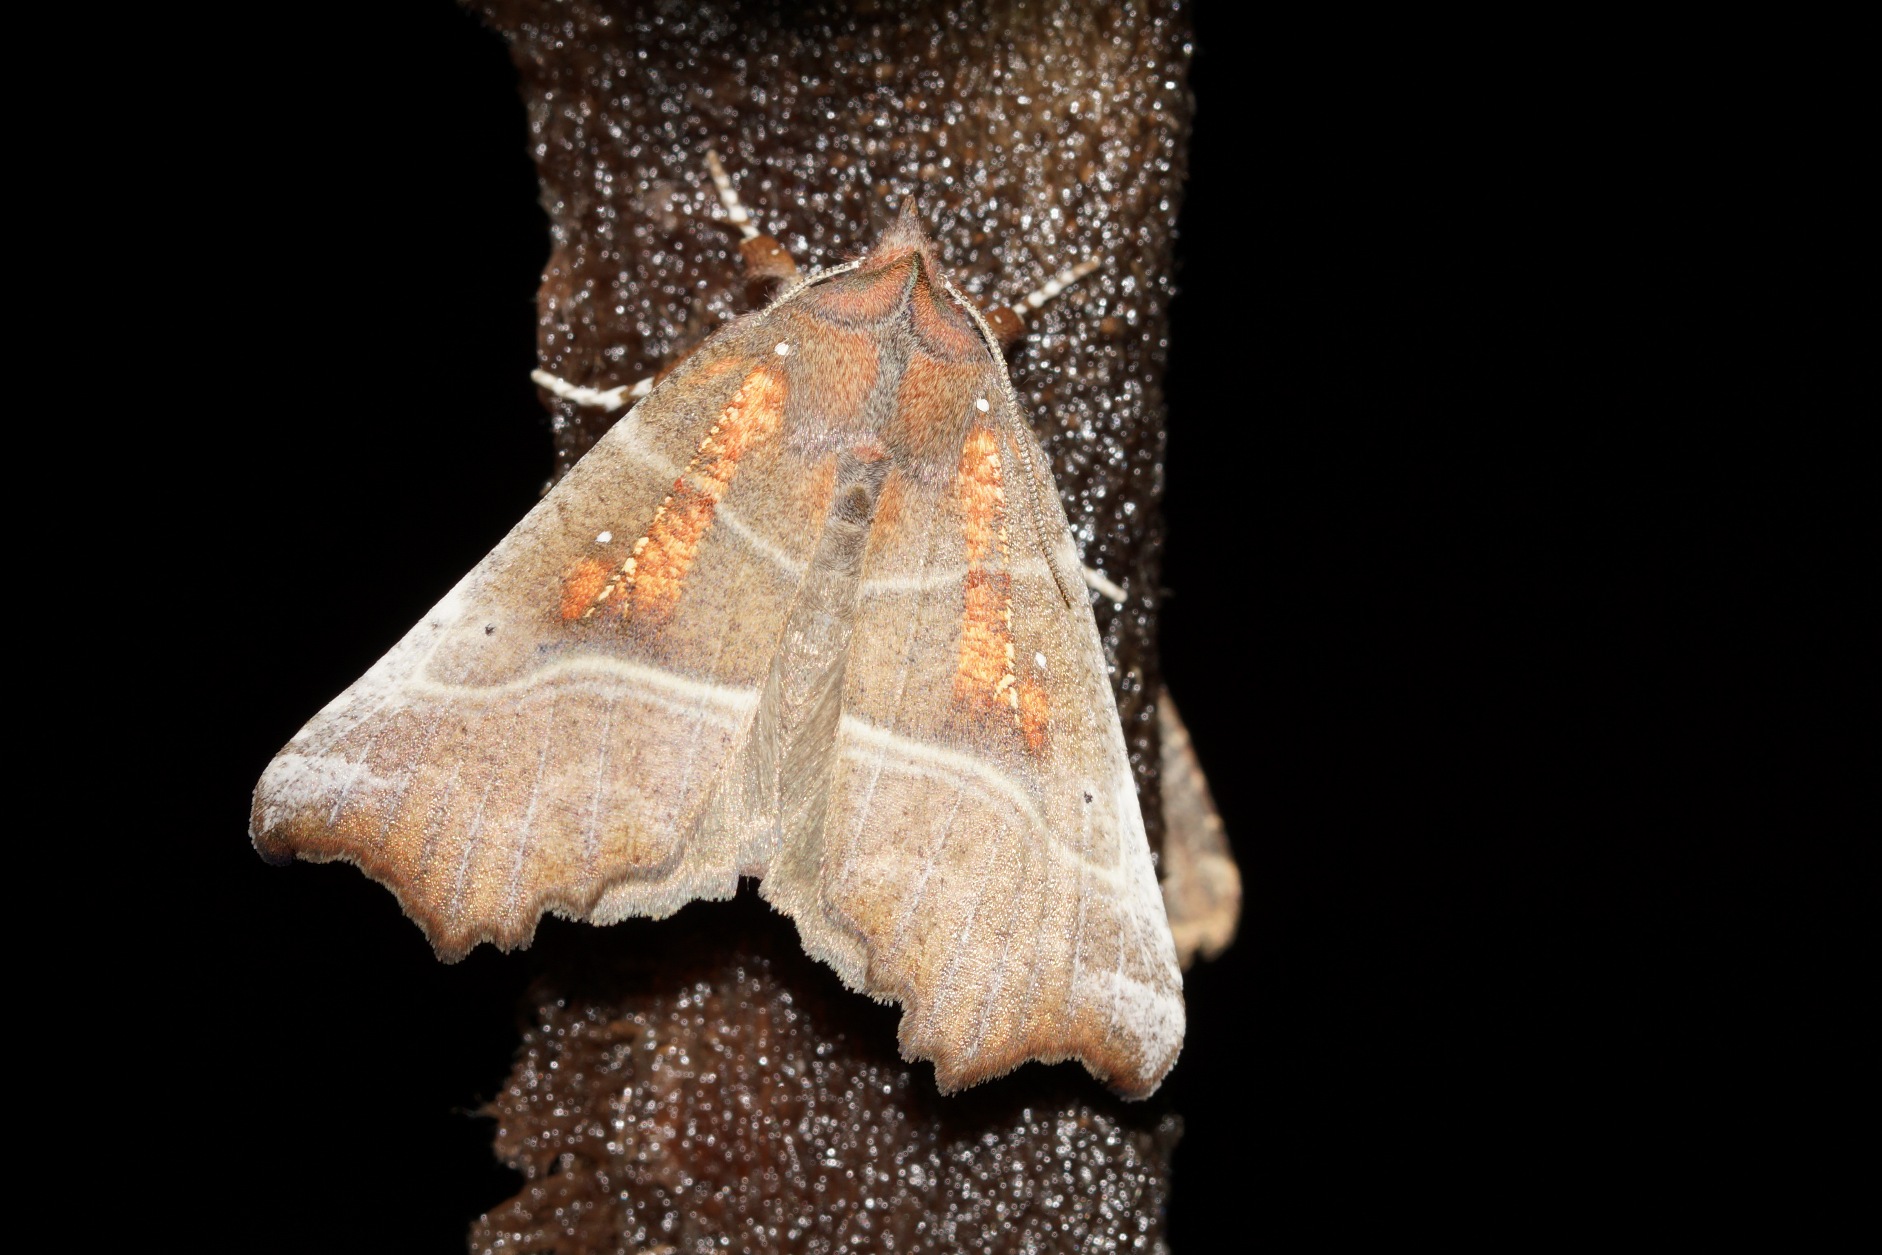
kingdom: Animalia
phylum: Arthropoda
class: Insecta
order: Lepidoptera
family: Erebidae
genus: Scoliopteryx
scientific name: Scoliopteryx libatrix
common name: Husmoderugle
